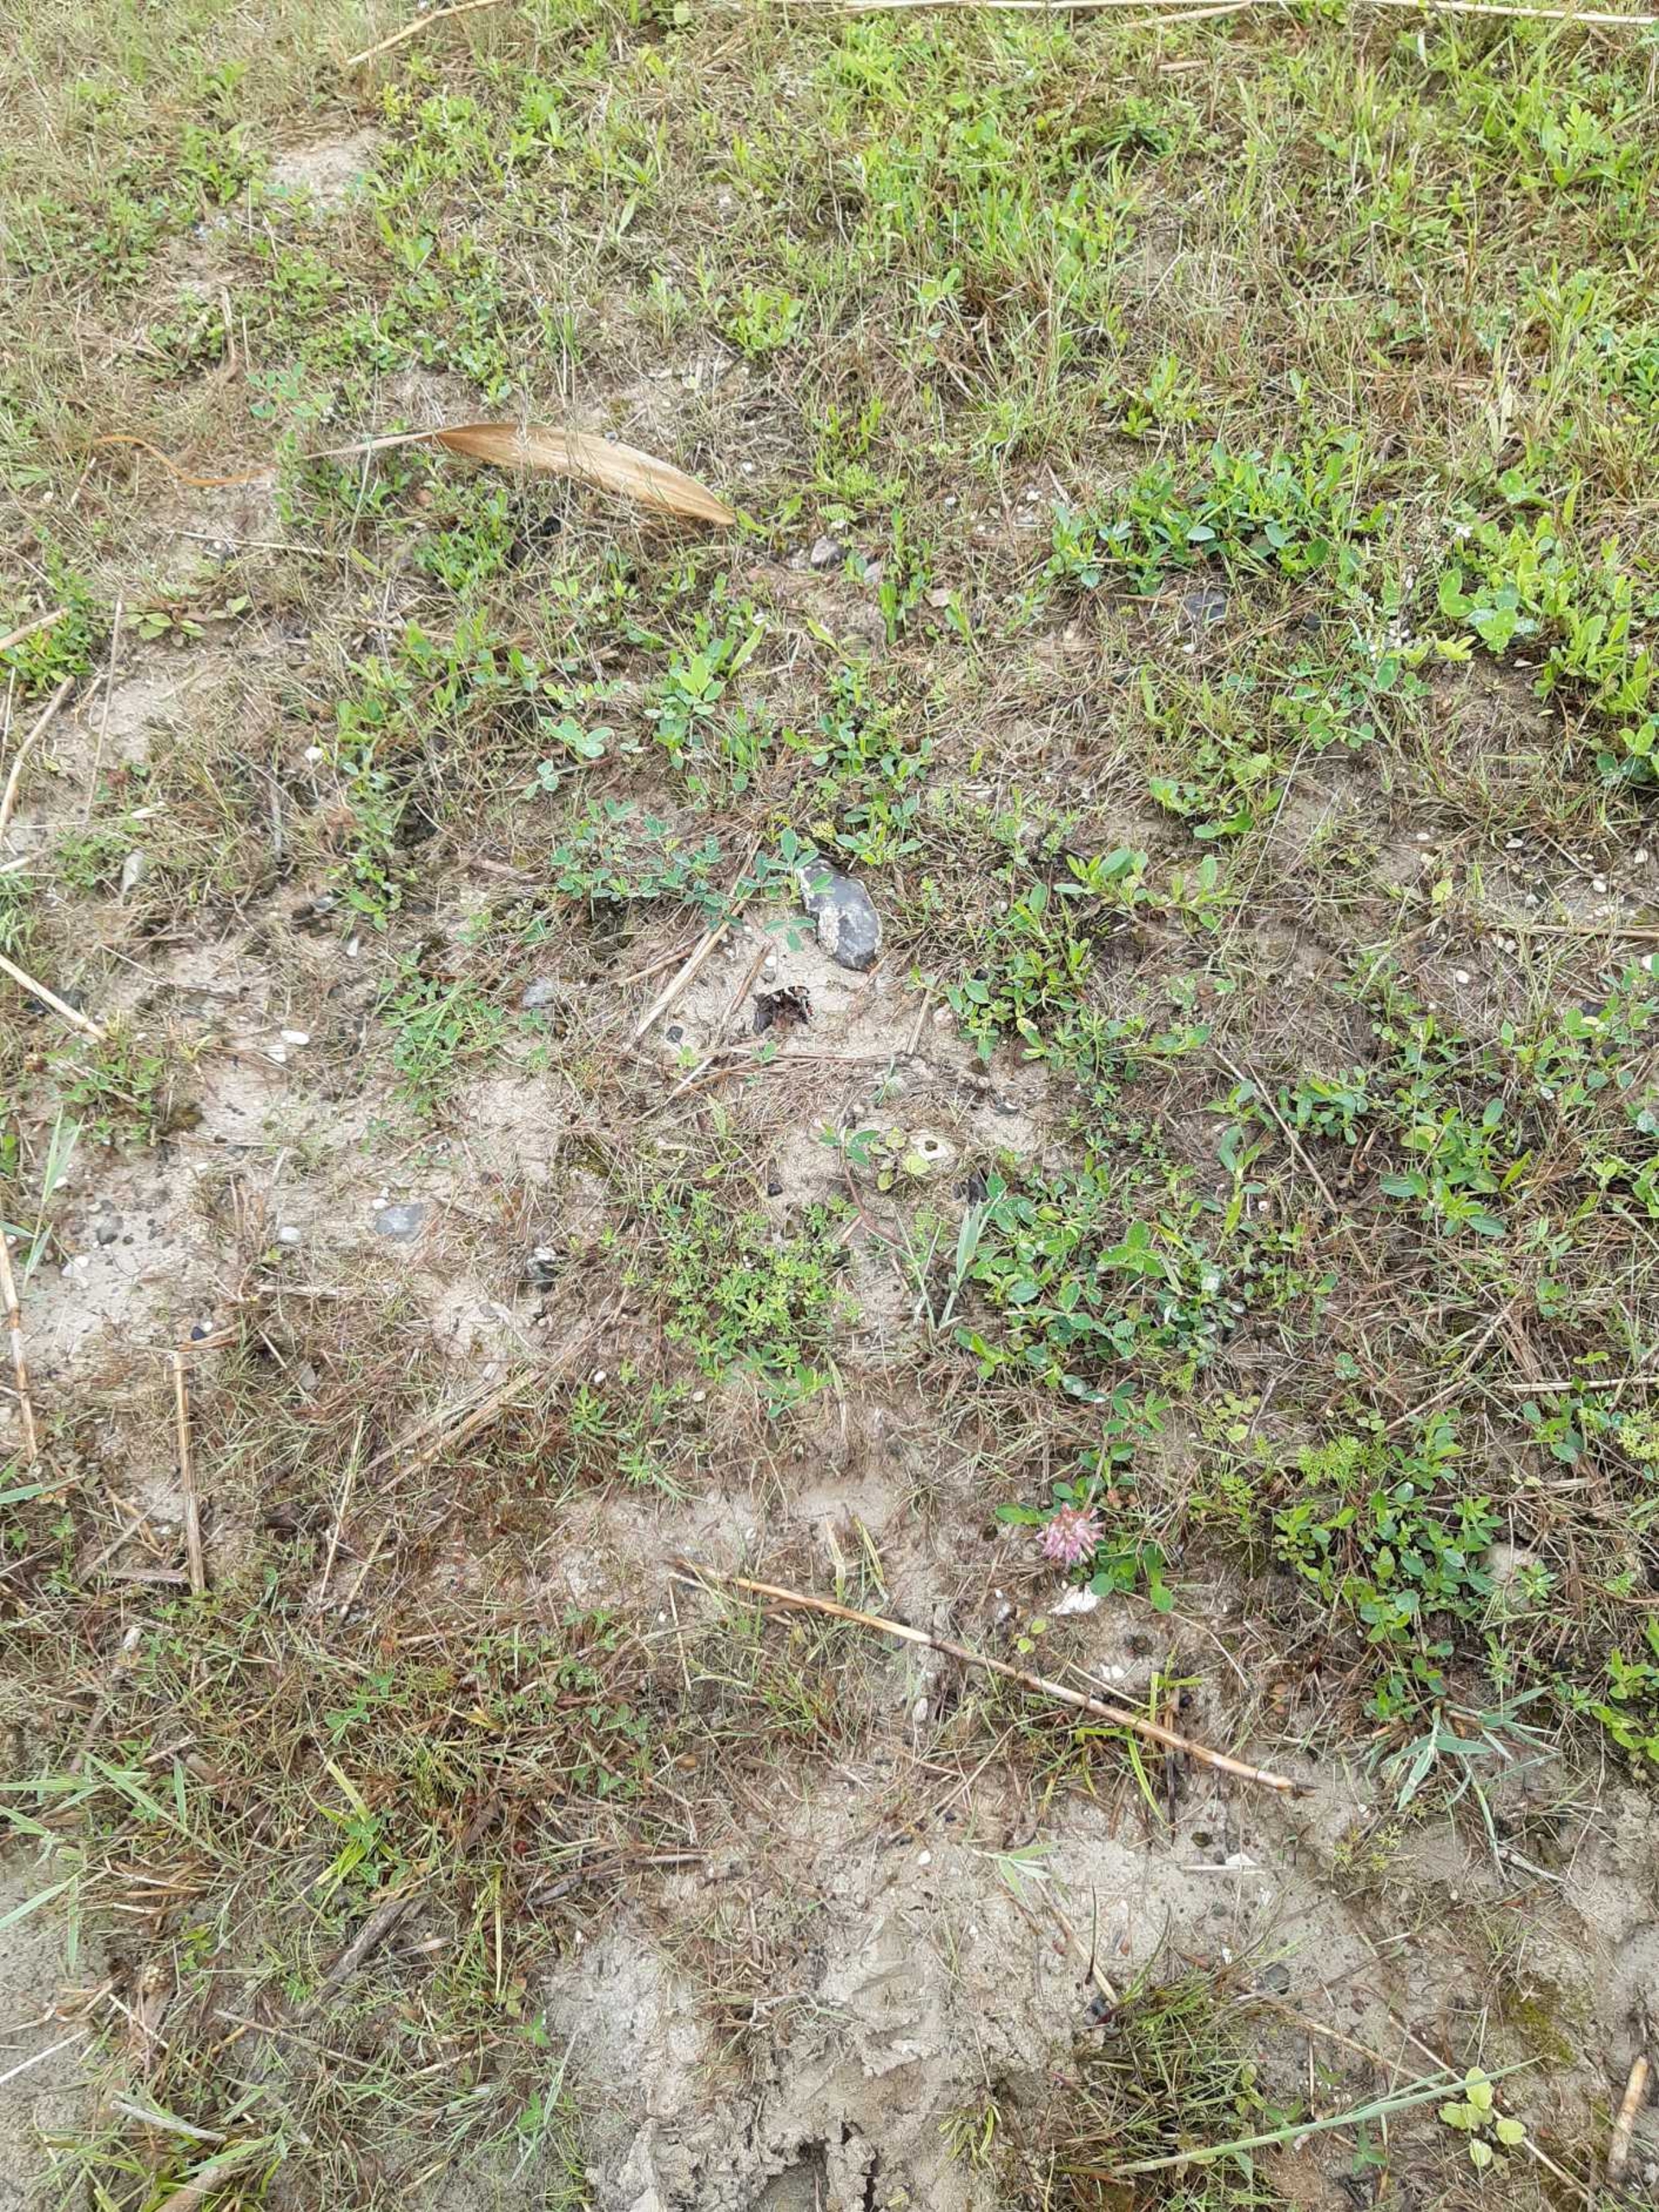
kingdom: Animalia
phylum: Arthropoda
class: Insecta
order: Lepidoptera
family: Nymphalidae
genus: Vanessa
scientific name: Vanessa atalanta
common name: Admiral
